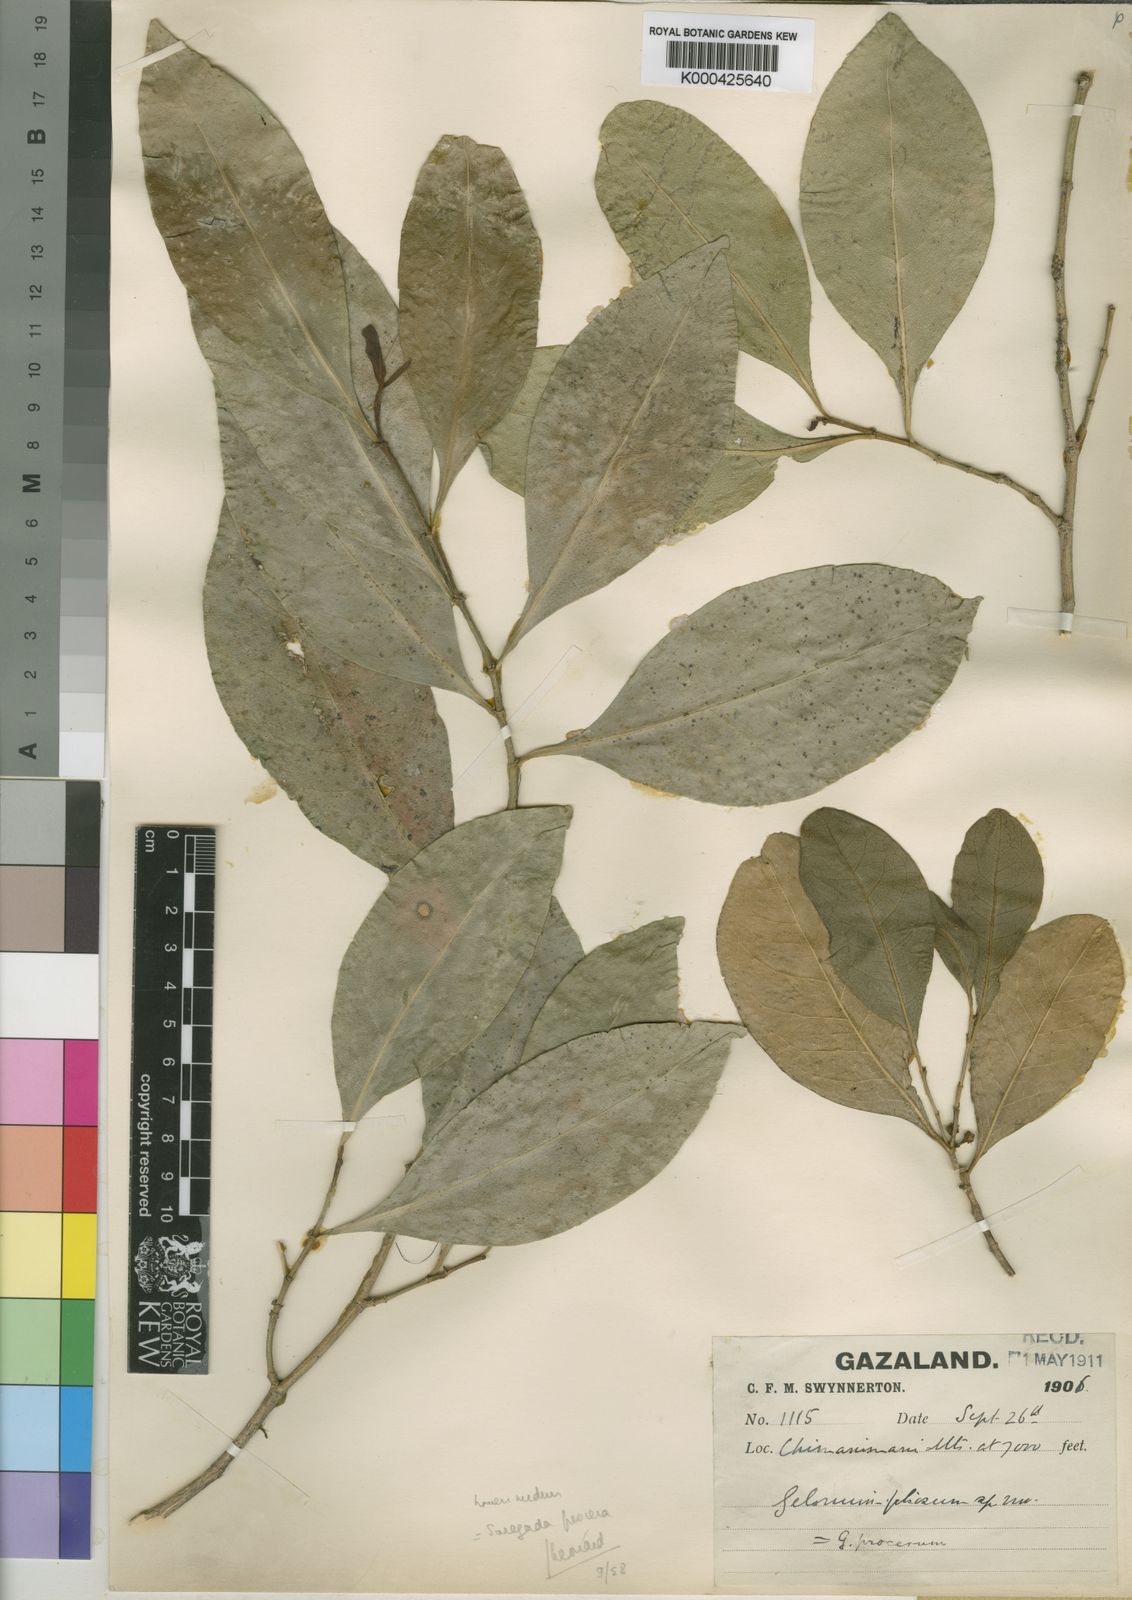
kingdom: Plantae
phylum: Tracheophyta
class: Magnoliopsida
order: Malpighiales
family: Euphorbiaceae
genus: Suregada
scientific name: Suregada procera
